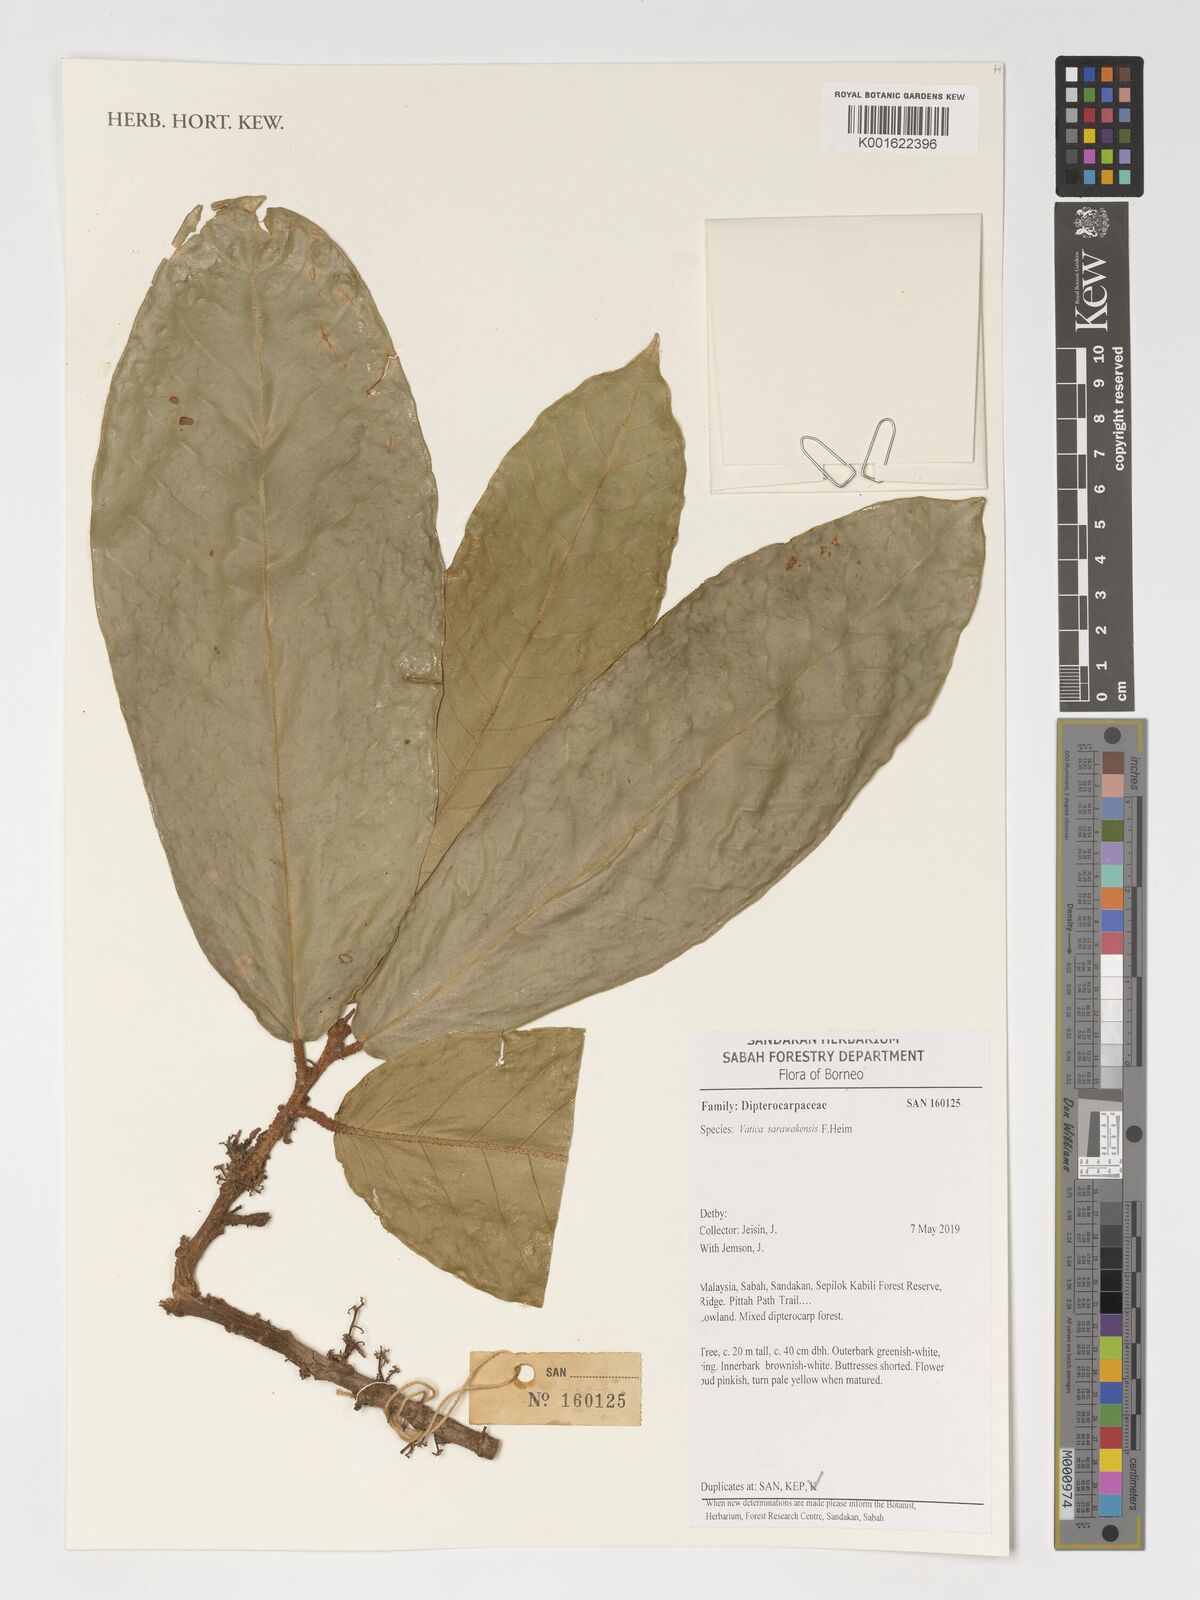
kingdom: Plantae
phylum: Tracheophyta
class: Magnoliopsida
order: Malvales
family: Dipterocarpaceae
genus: Vatica
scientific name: Vatica sarawakensis
